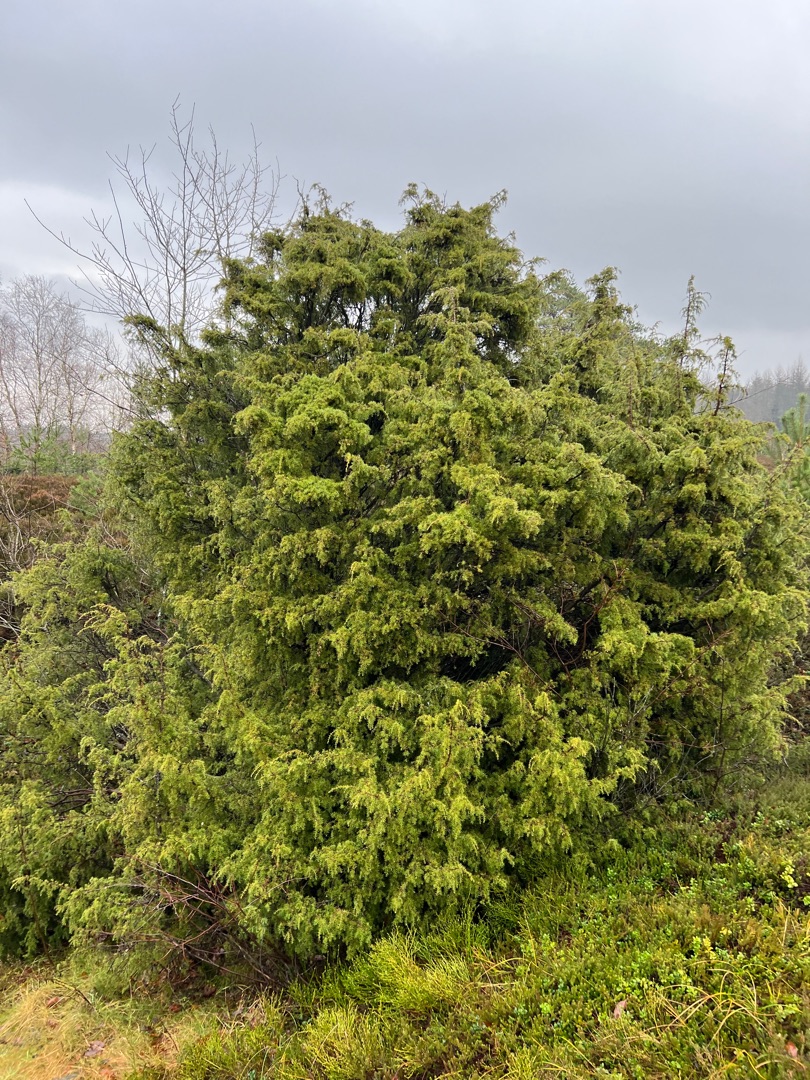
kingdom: Plantae
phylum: Tracheophyta
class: Pinopsida
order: Pinales
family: Cupressaceae
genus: Juniperus
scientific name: Juniperus communis
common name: Almindelig ene
